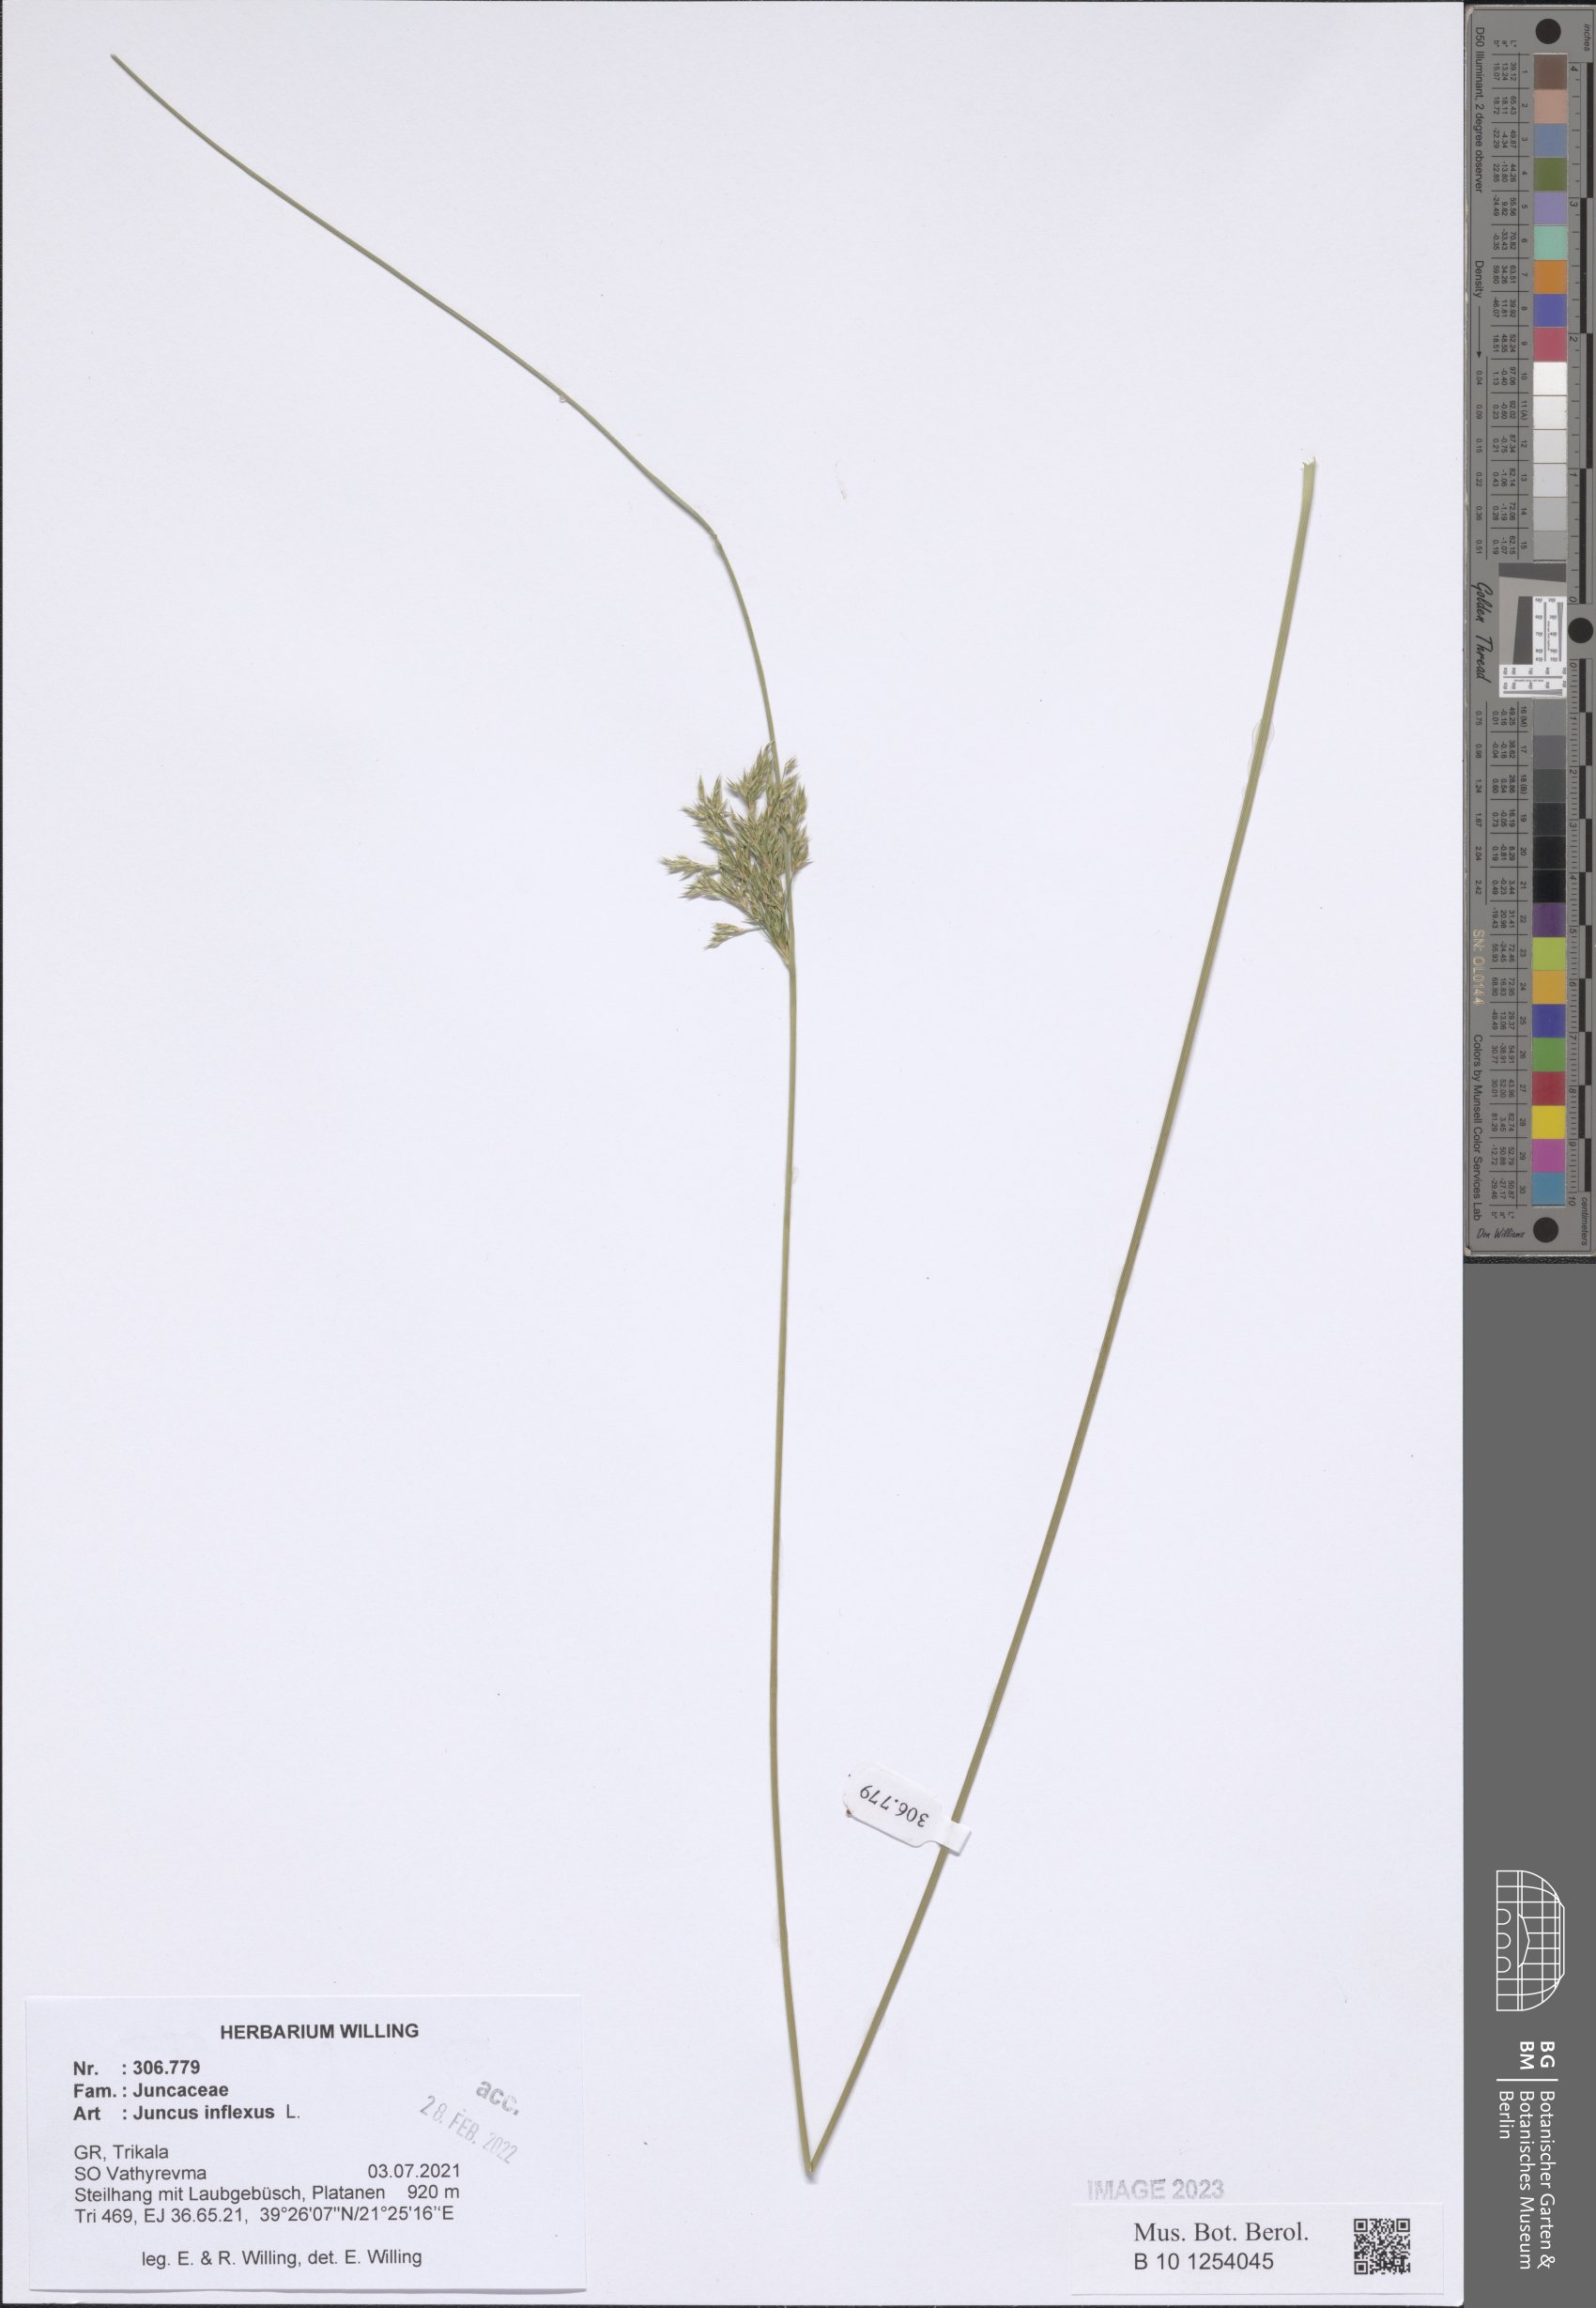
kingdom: Plantae
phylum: Tracheophyta
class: Liliopsida
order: Poales
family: Juncaceae
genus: Juncus
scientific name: Juncus inflexus
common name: Hard rush
